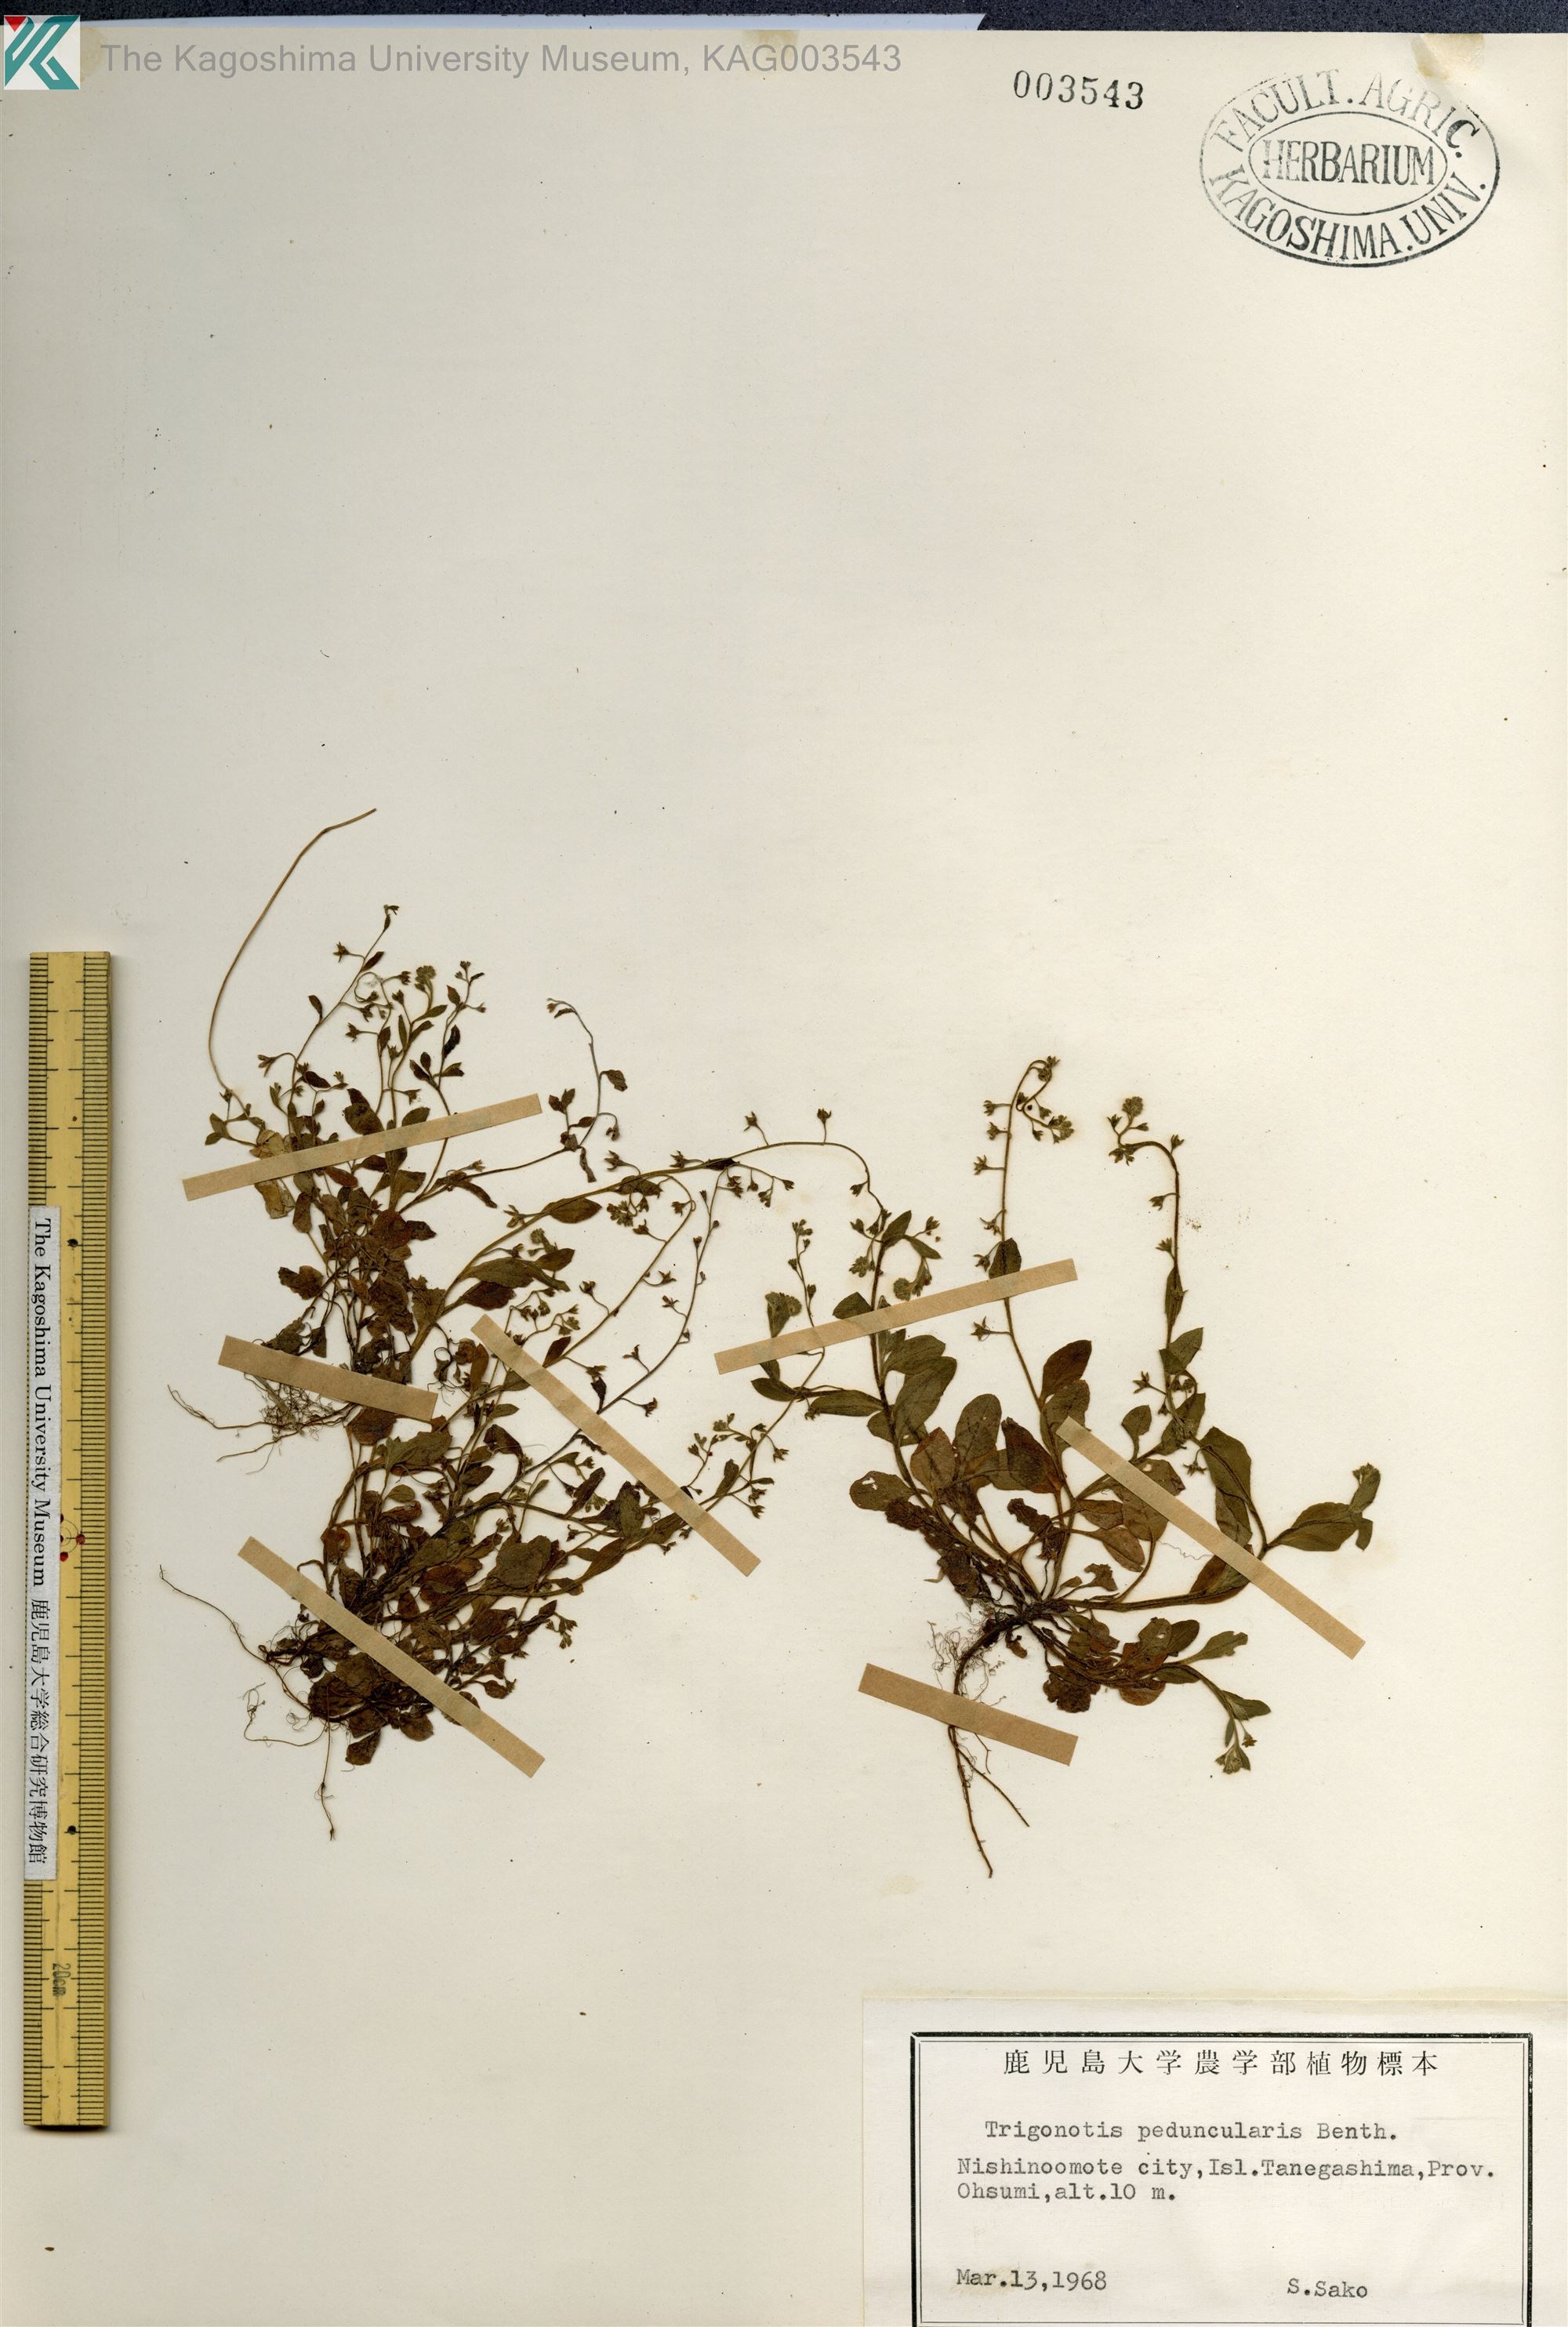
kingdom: Plantae
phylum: Tracheophyta
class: Magnoliopsida
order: Boraginales
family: Boraginaceae
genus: Trigonotis
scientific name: Trigonotis peduncularis
